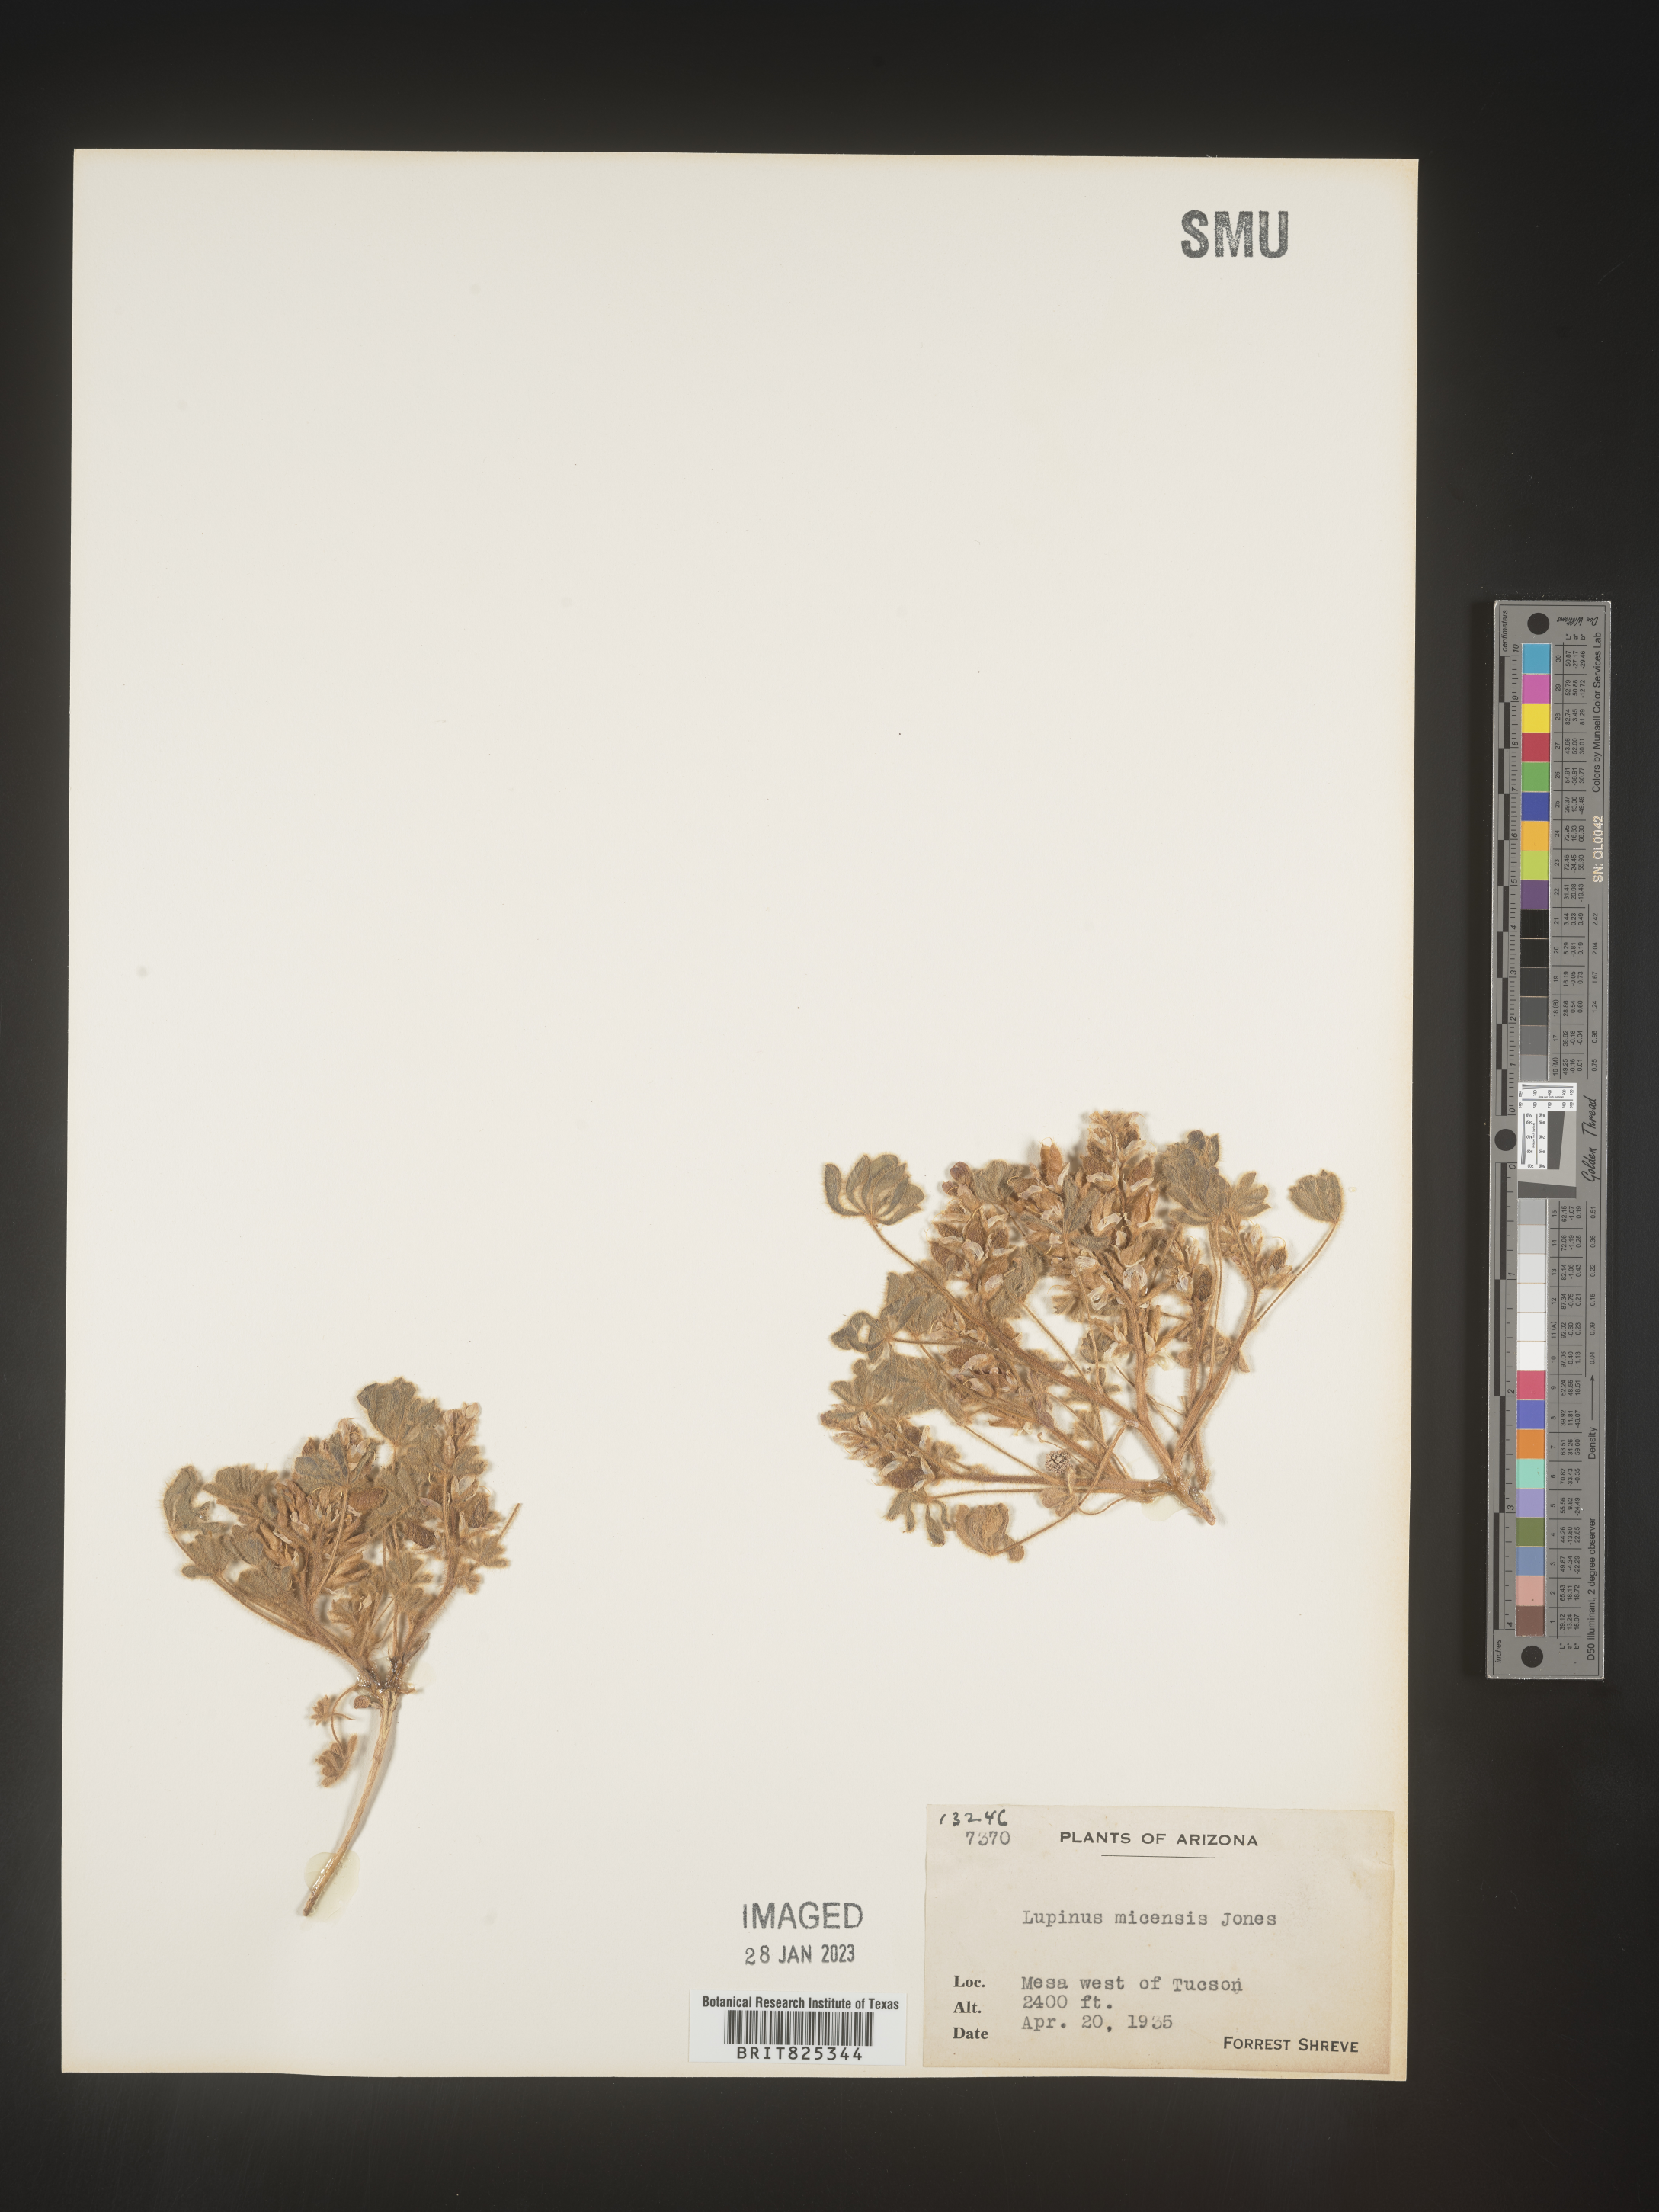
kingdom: Plantae
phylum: Tracheophyta
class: Magnoliopsida
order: Fabales
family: Fabaceae
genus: Lupinus
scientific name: Lupinus
